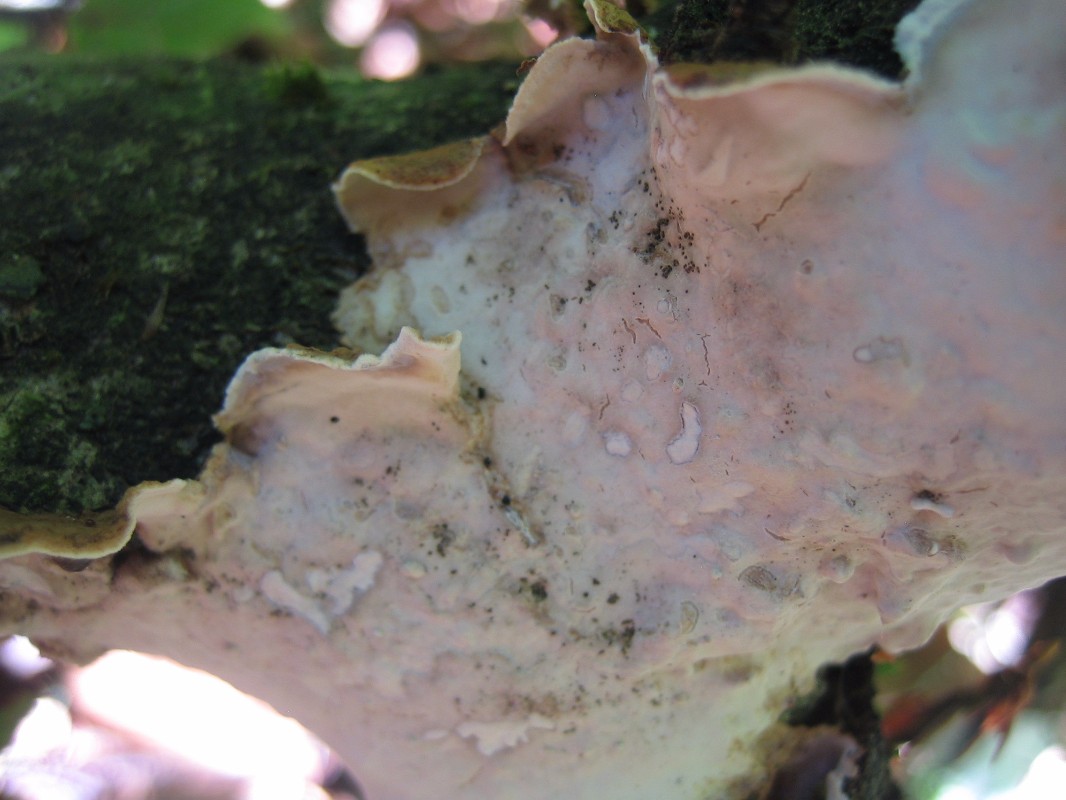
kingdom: Fungi
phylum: Basidiomycota
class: Agaricomycetes
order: Polyporales
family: Irpicaceae
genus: Byssomerulius
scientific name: Byssomerulius corium
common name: læder-åresvamp
